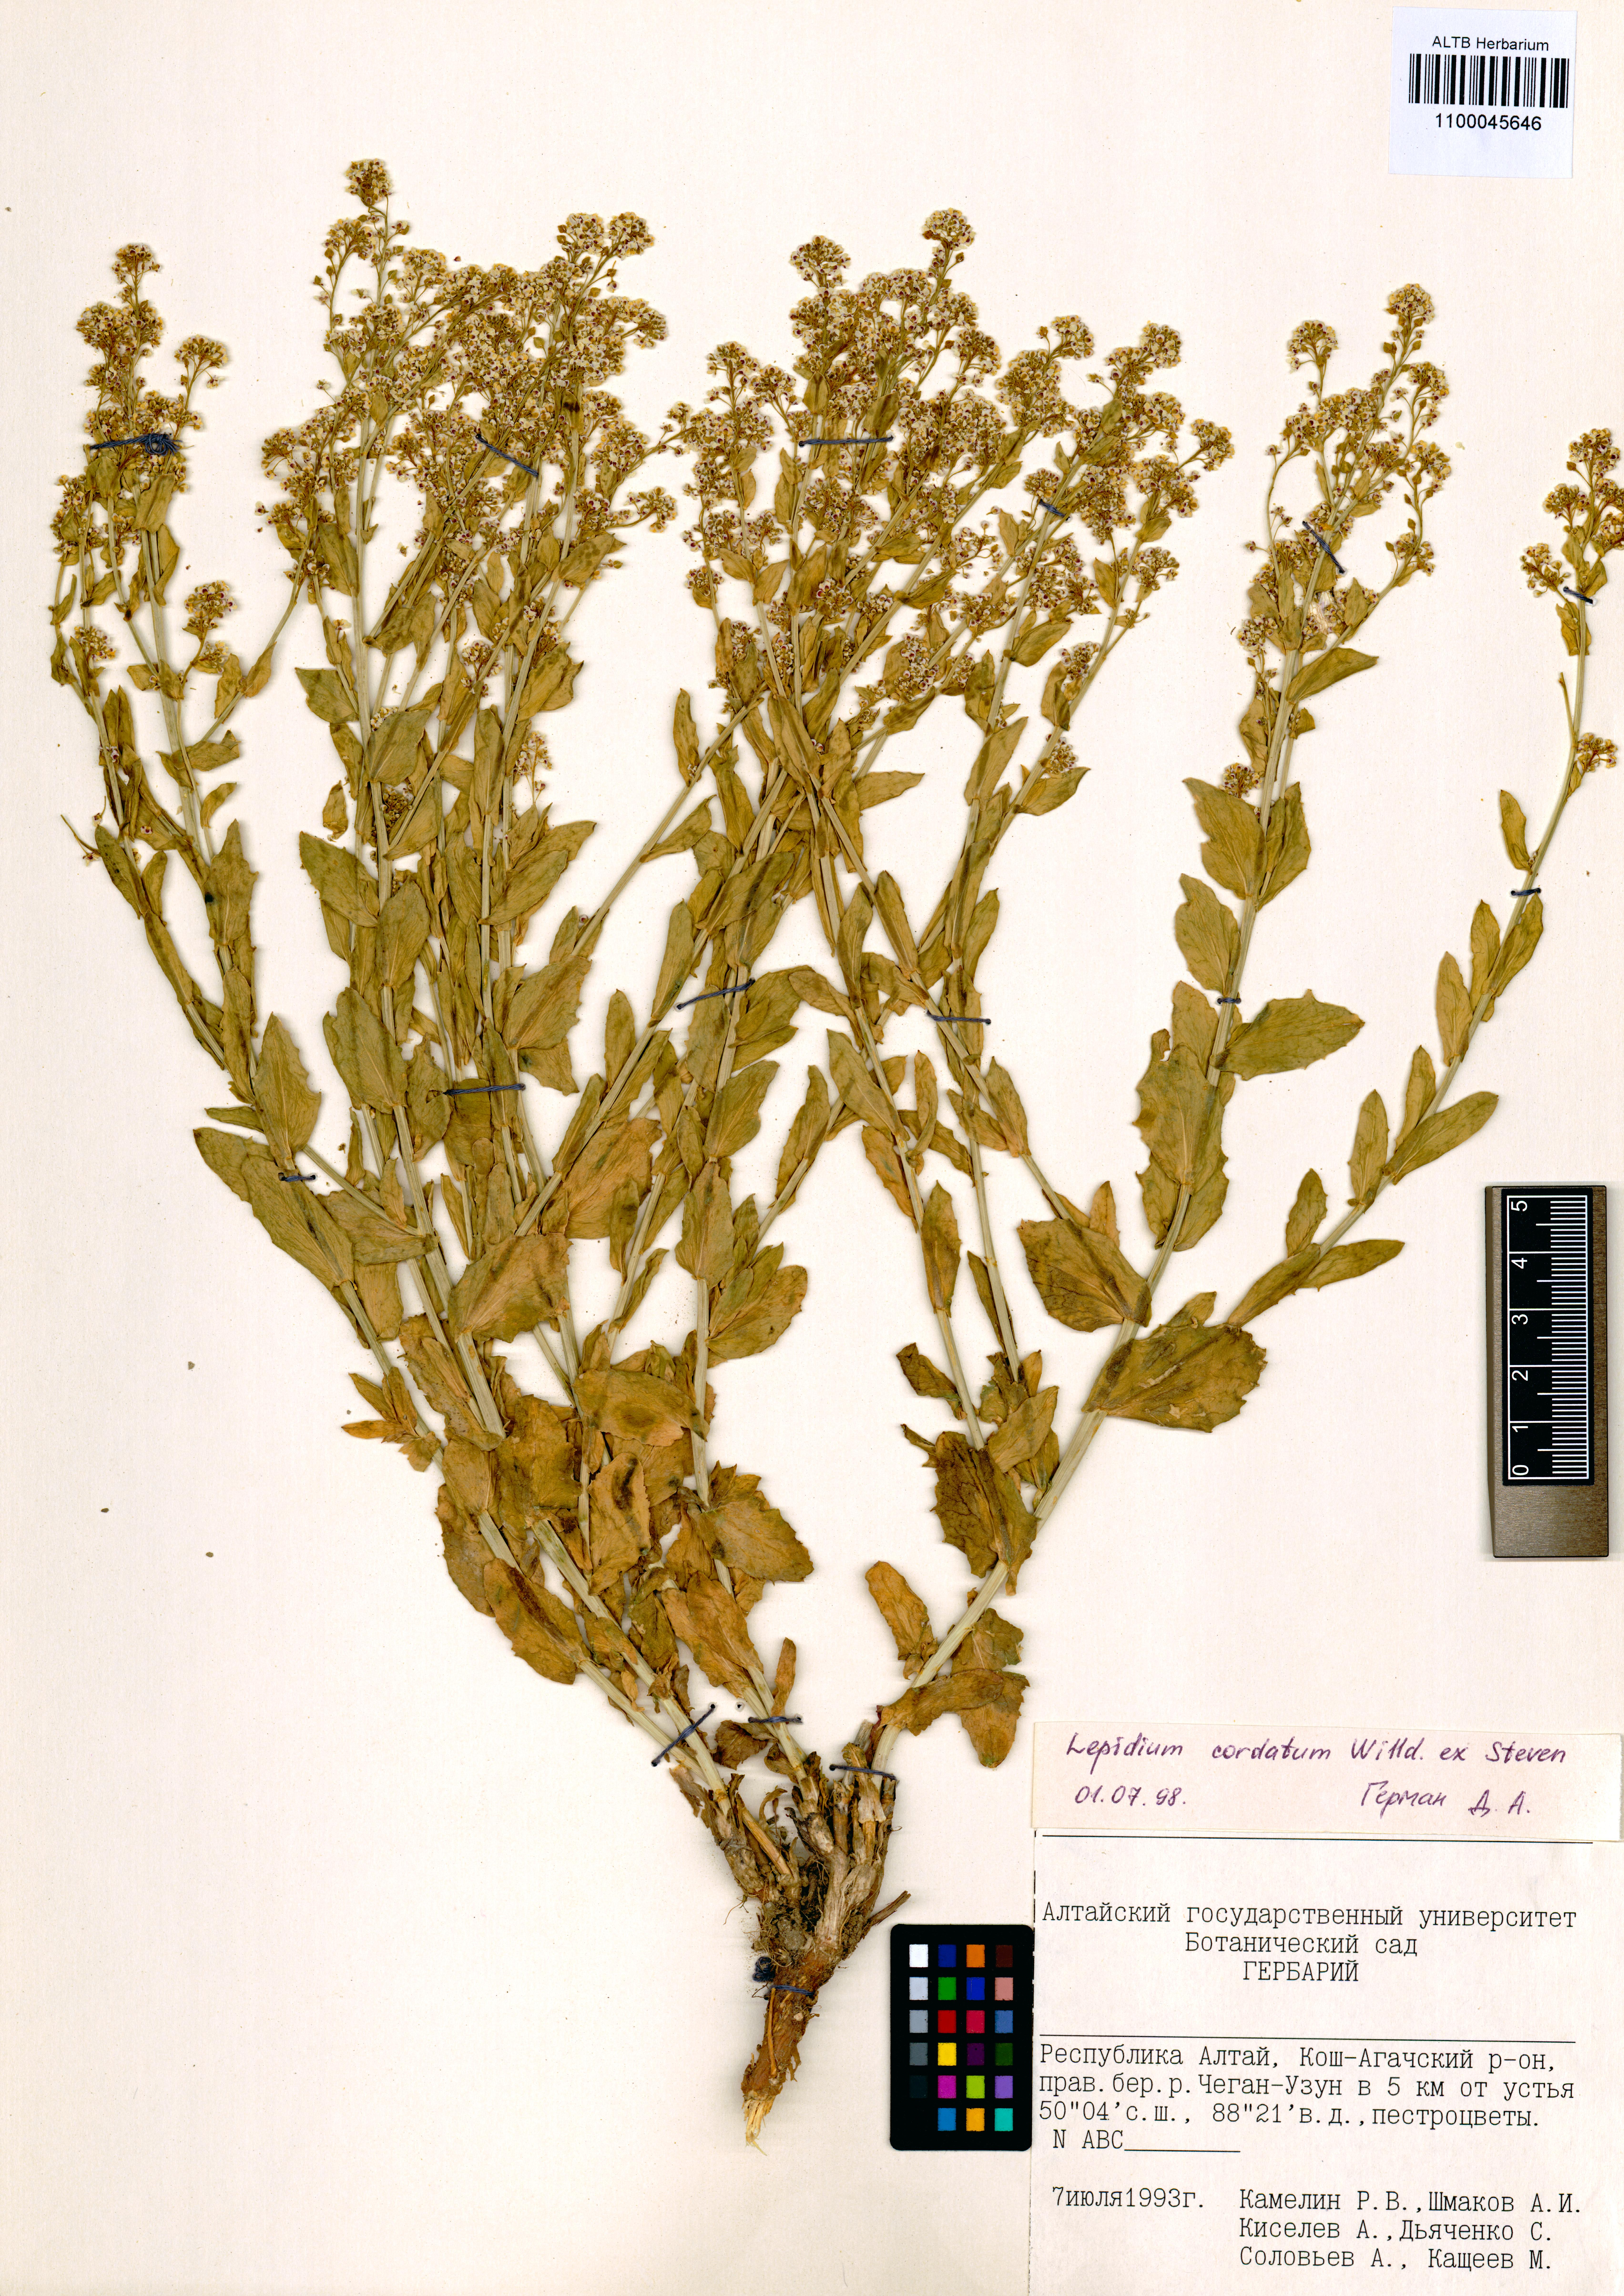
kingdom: Plantae
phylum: Tracheophyta
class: Magnoliopsida
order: Brassicales
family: Brassicaceae
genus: Lepidium
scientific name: Lepidium cordatum
